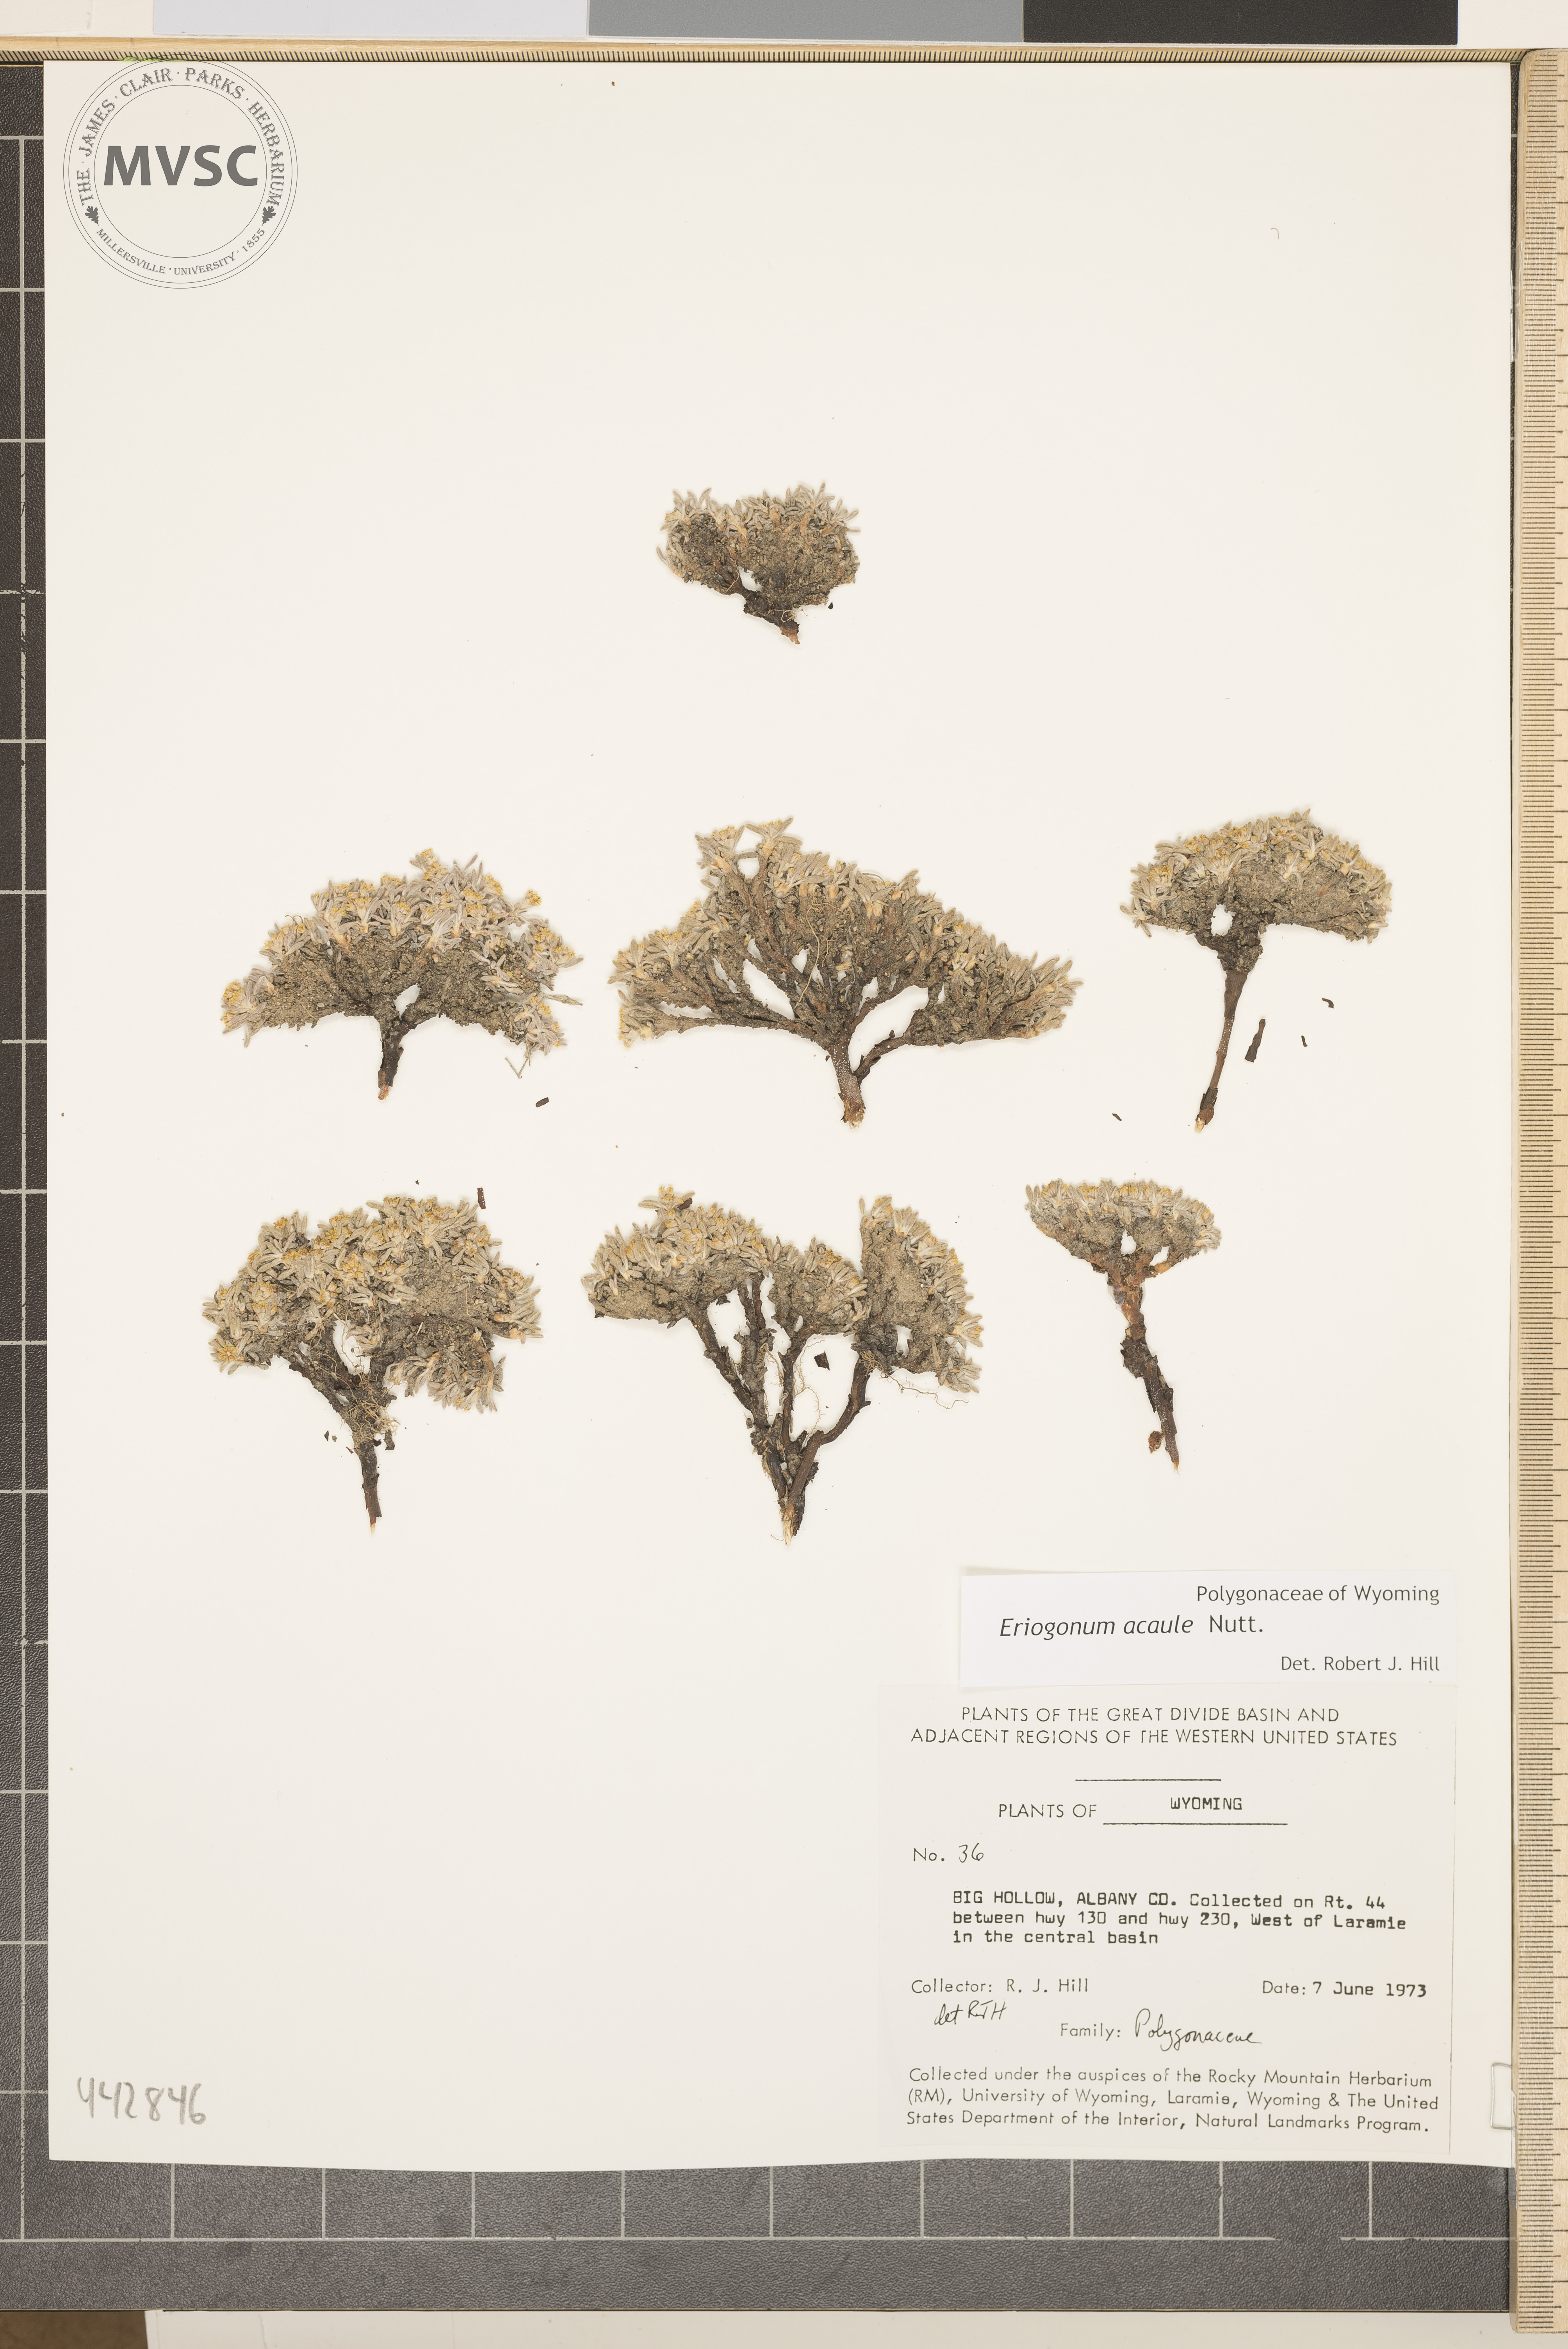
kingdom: Plantae
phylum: Tracheophyta
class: Magnoliopsida
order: Caryophyllales
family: Polygonaceae
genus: Eriogonum
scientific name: Eriogonum acaule
